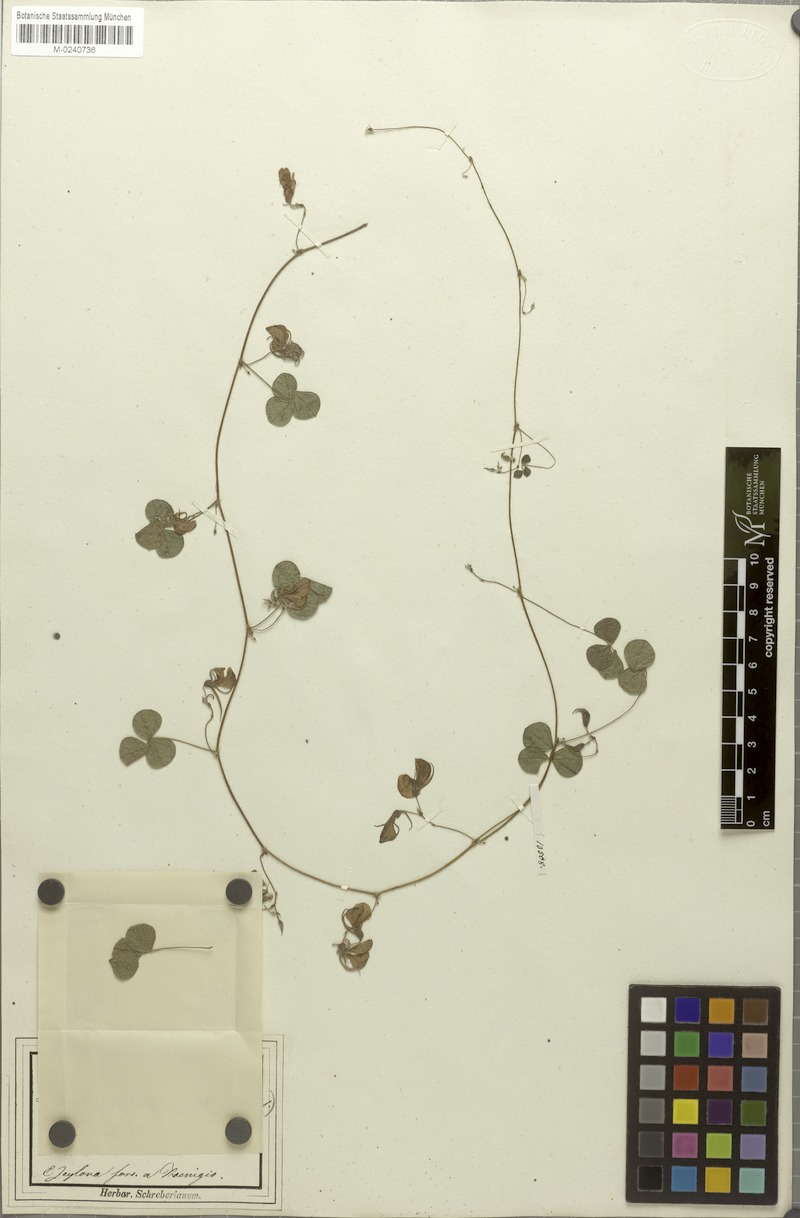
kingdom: Plantae
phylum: Tracheophyta
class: Magnoliopsida
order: Fabales
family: Fabaceae
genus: Rhynchosia
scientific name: Rhynchosia aurea
